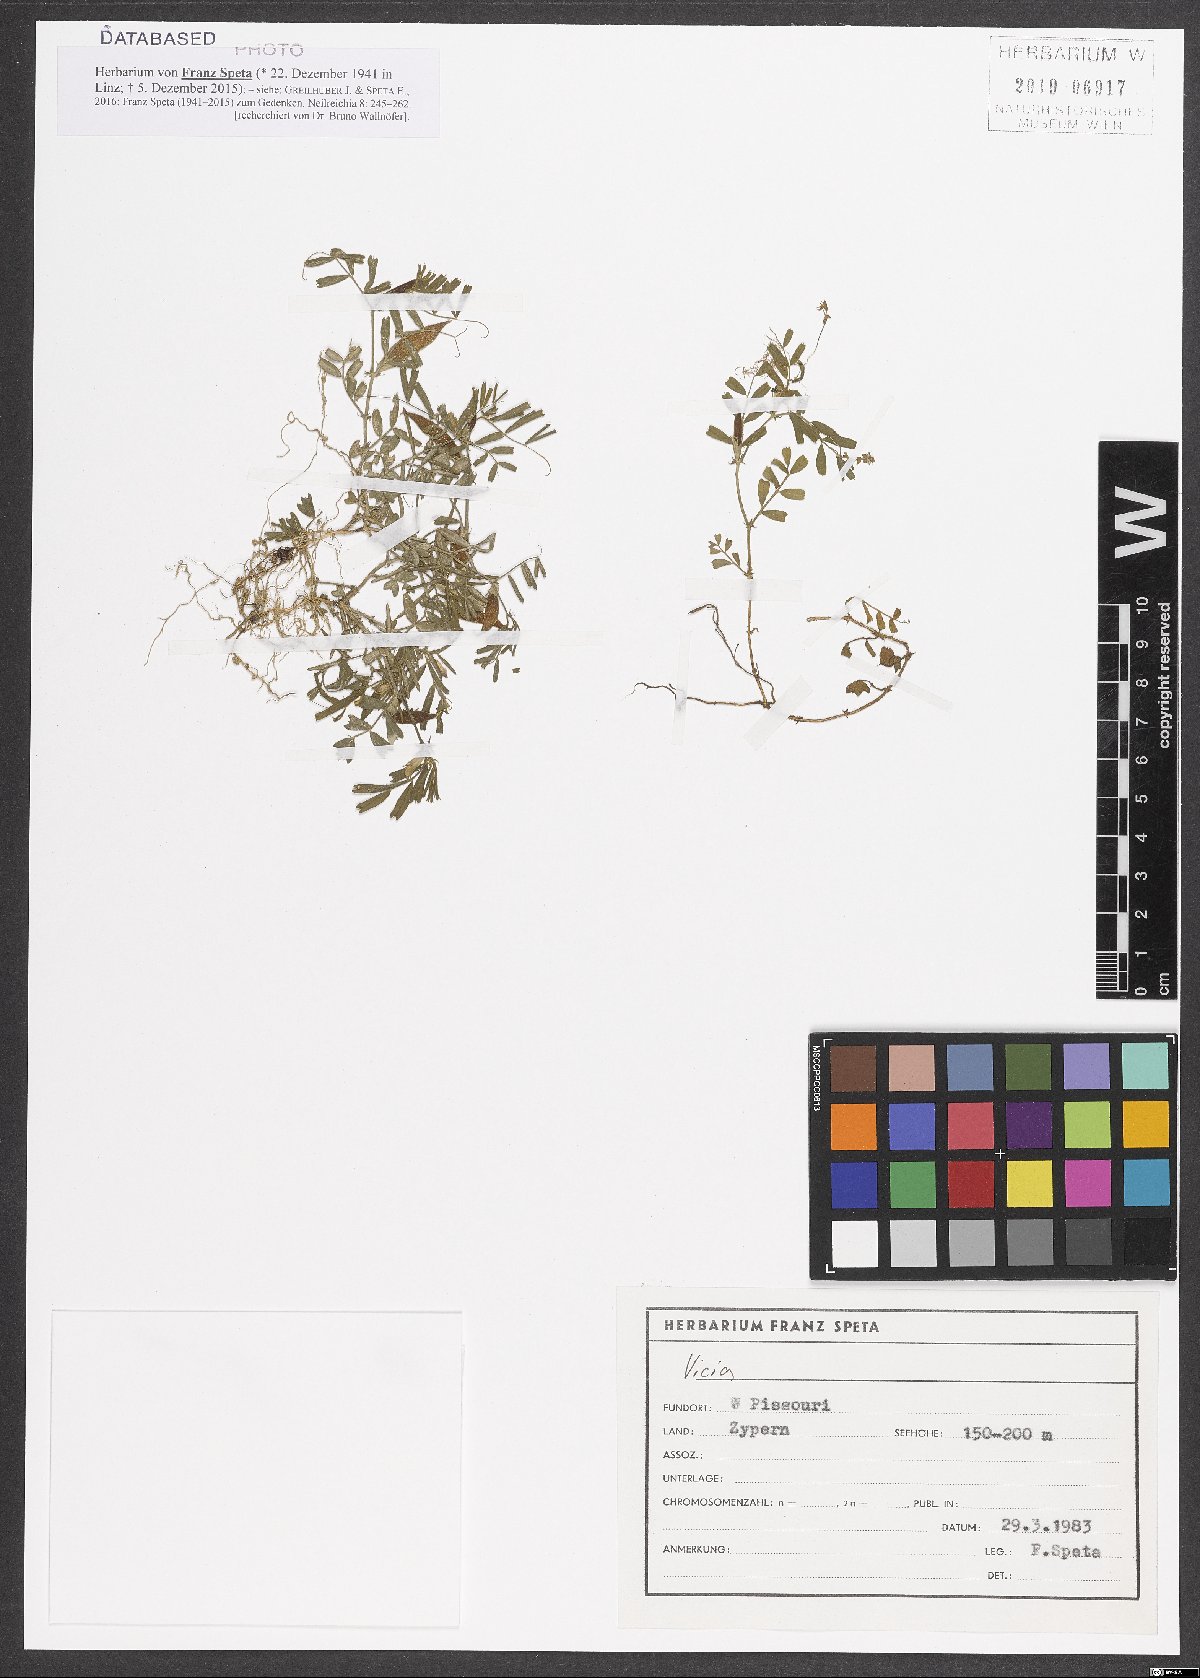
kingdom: Plantae
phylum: Tracheophyta
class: Magnoliopsida
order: Fabales
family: Fabaceae
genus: Vicia
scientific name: Vicia
